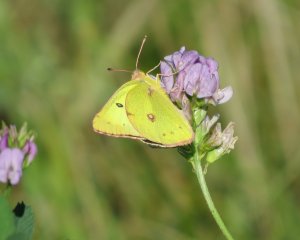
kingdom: Animalia
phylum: Arthropoda
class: Insecta
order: Lepidoptera
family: Pieridae
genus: Colias
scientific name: Colias philodice
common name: Clouded Sulphur
